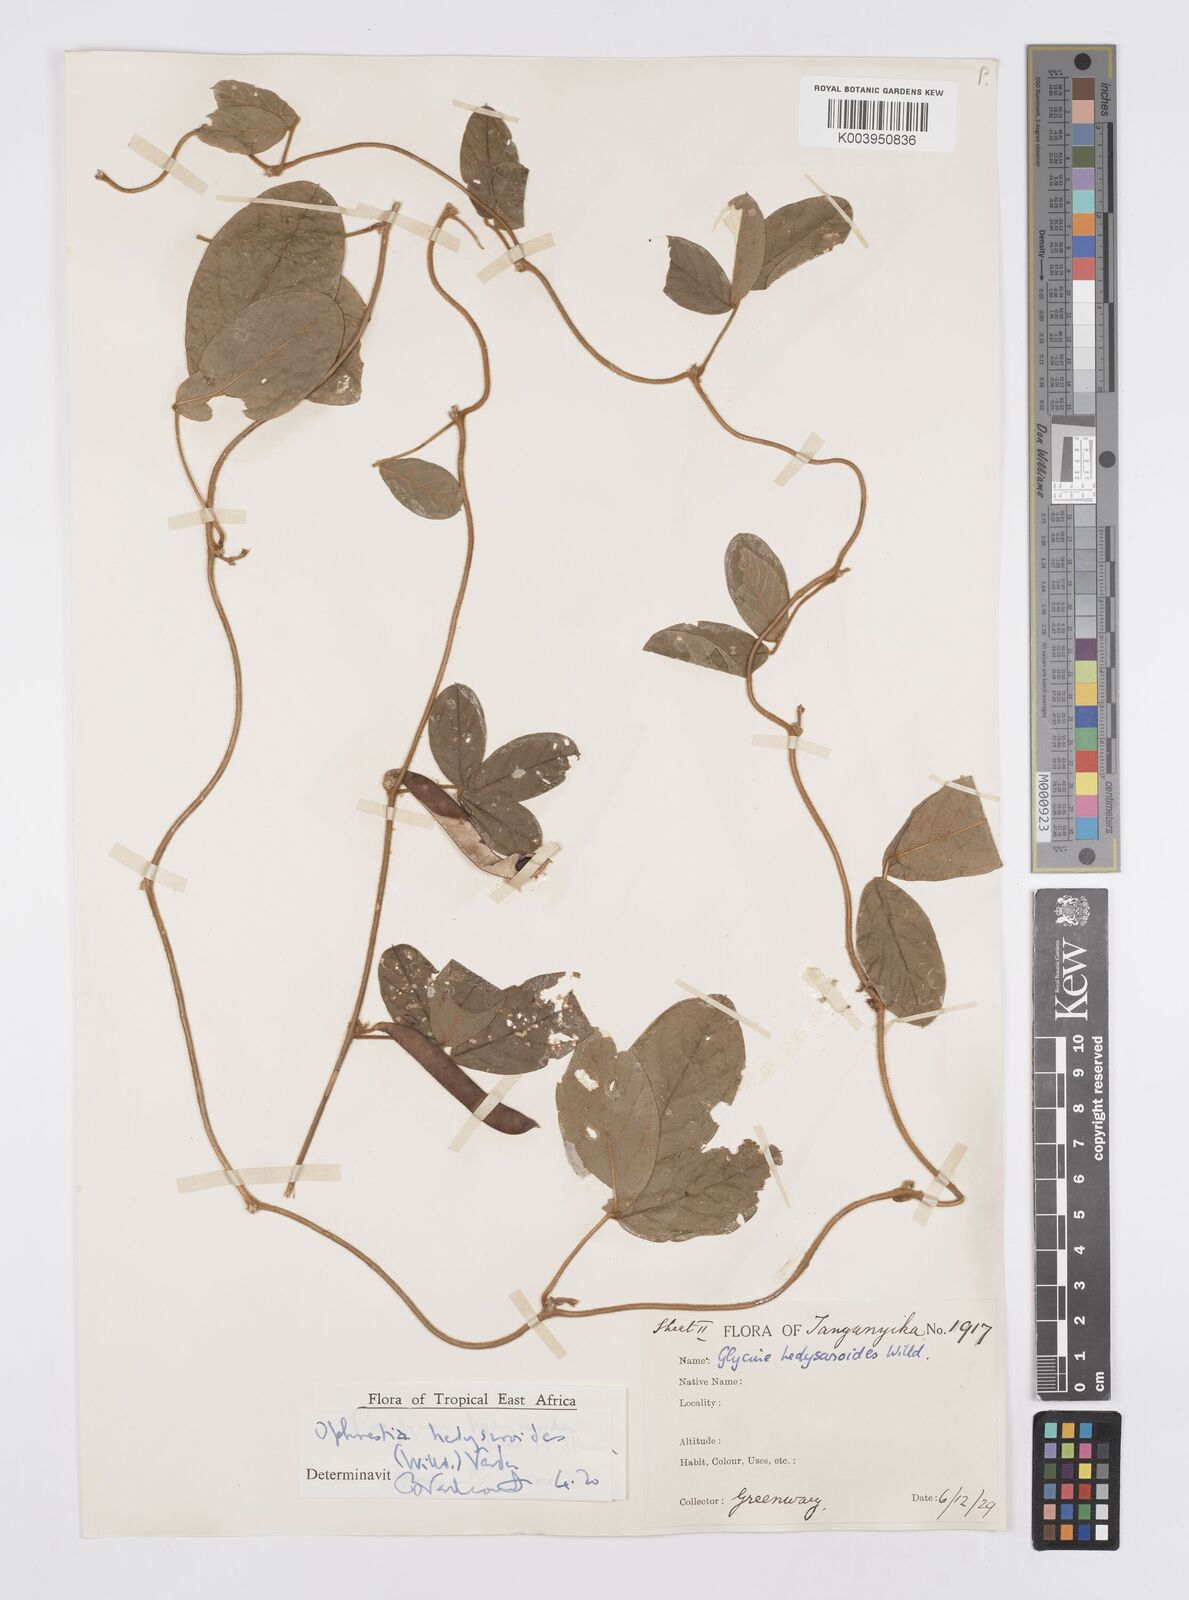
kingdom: Plantae
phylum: Tracheophyta
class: Magnoliopsida
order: Fabales
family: Fabaceae
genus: Ophrestia
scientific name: Ophrestia hedysaroides
